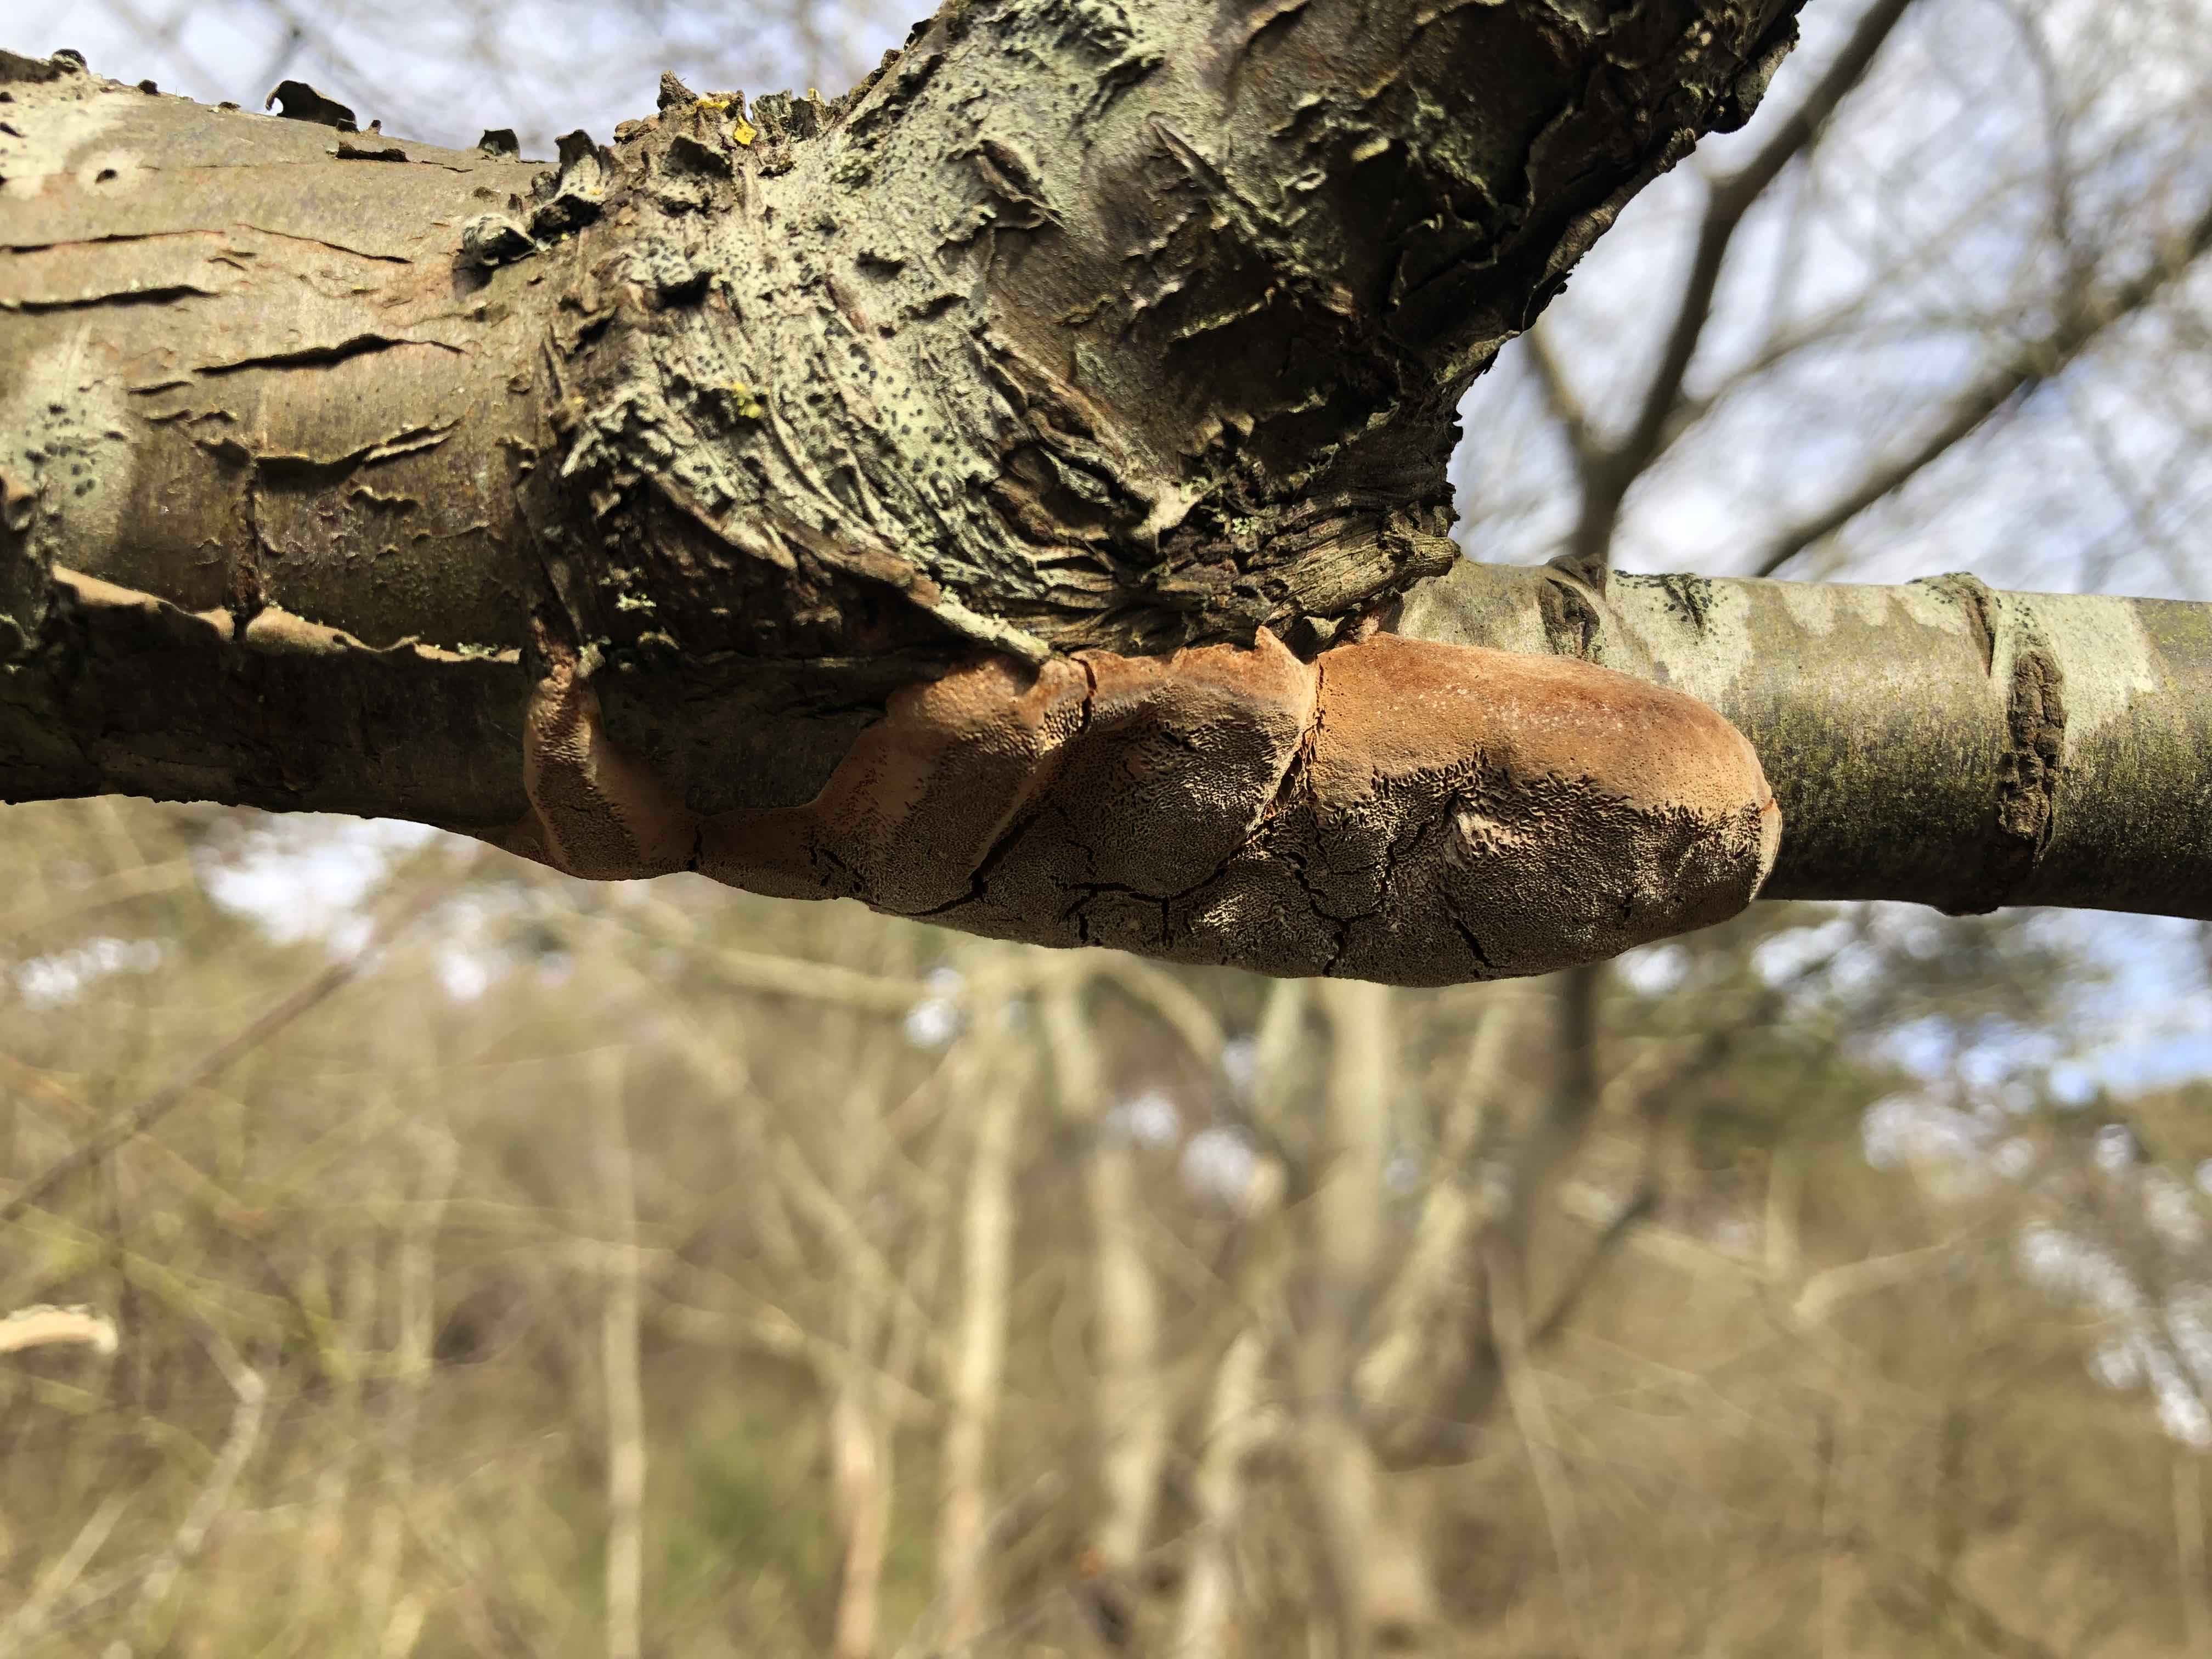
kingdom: Fungi
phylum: Basidiomycota
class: Agaricomycetes
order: Hymenochaetales
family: Hymenochaetaceae
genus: Phellinus
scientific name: Phellinus pomaceus
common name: blomme-ildporesvamp
